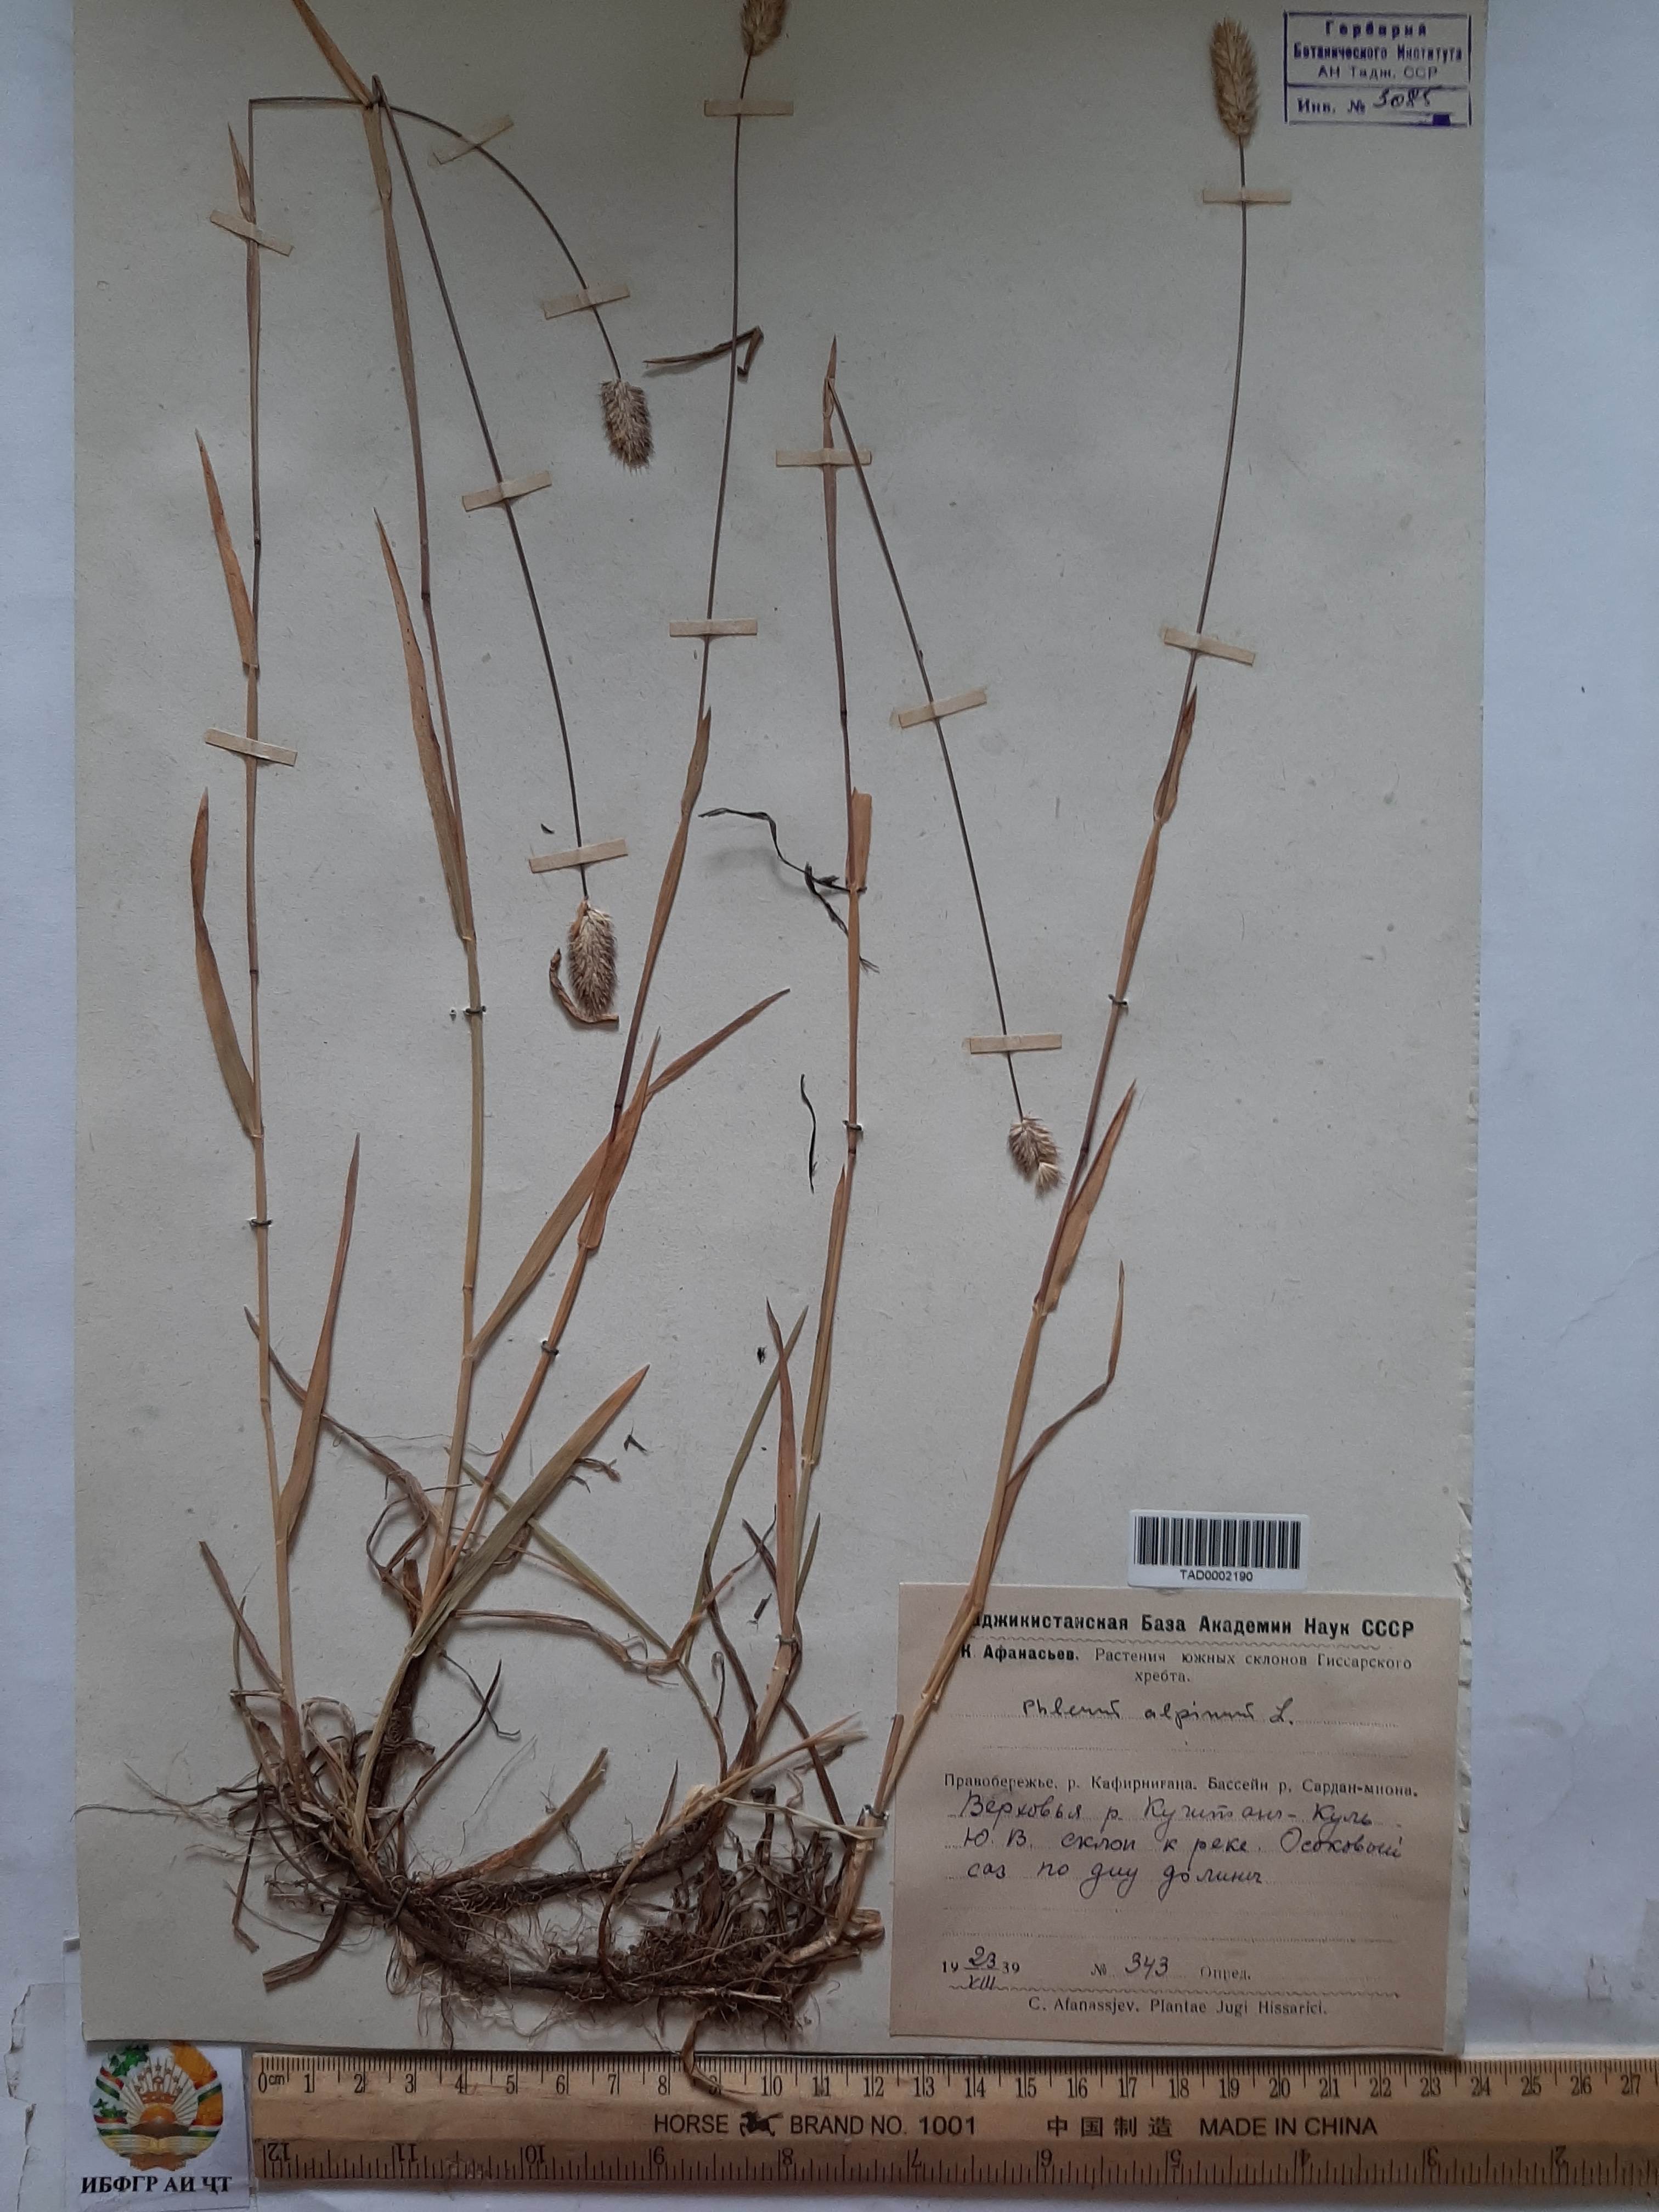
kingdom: Plantae
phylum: Tracheophyta
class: Liliopsida
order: Poales
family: Poaceae
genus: Phleum
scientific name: Phleum alpinum
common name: Alpine cat's-tail
